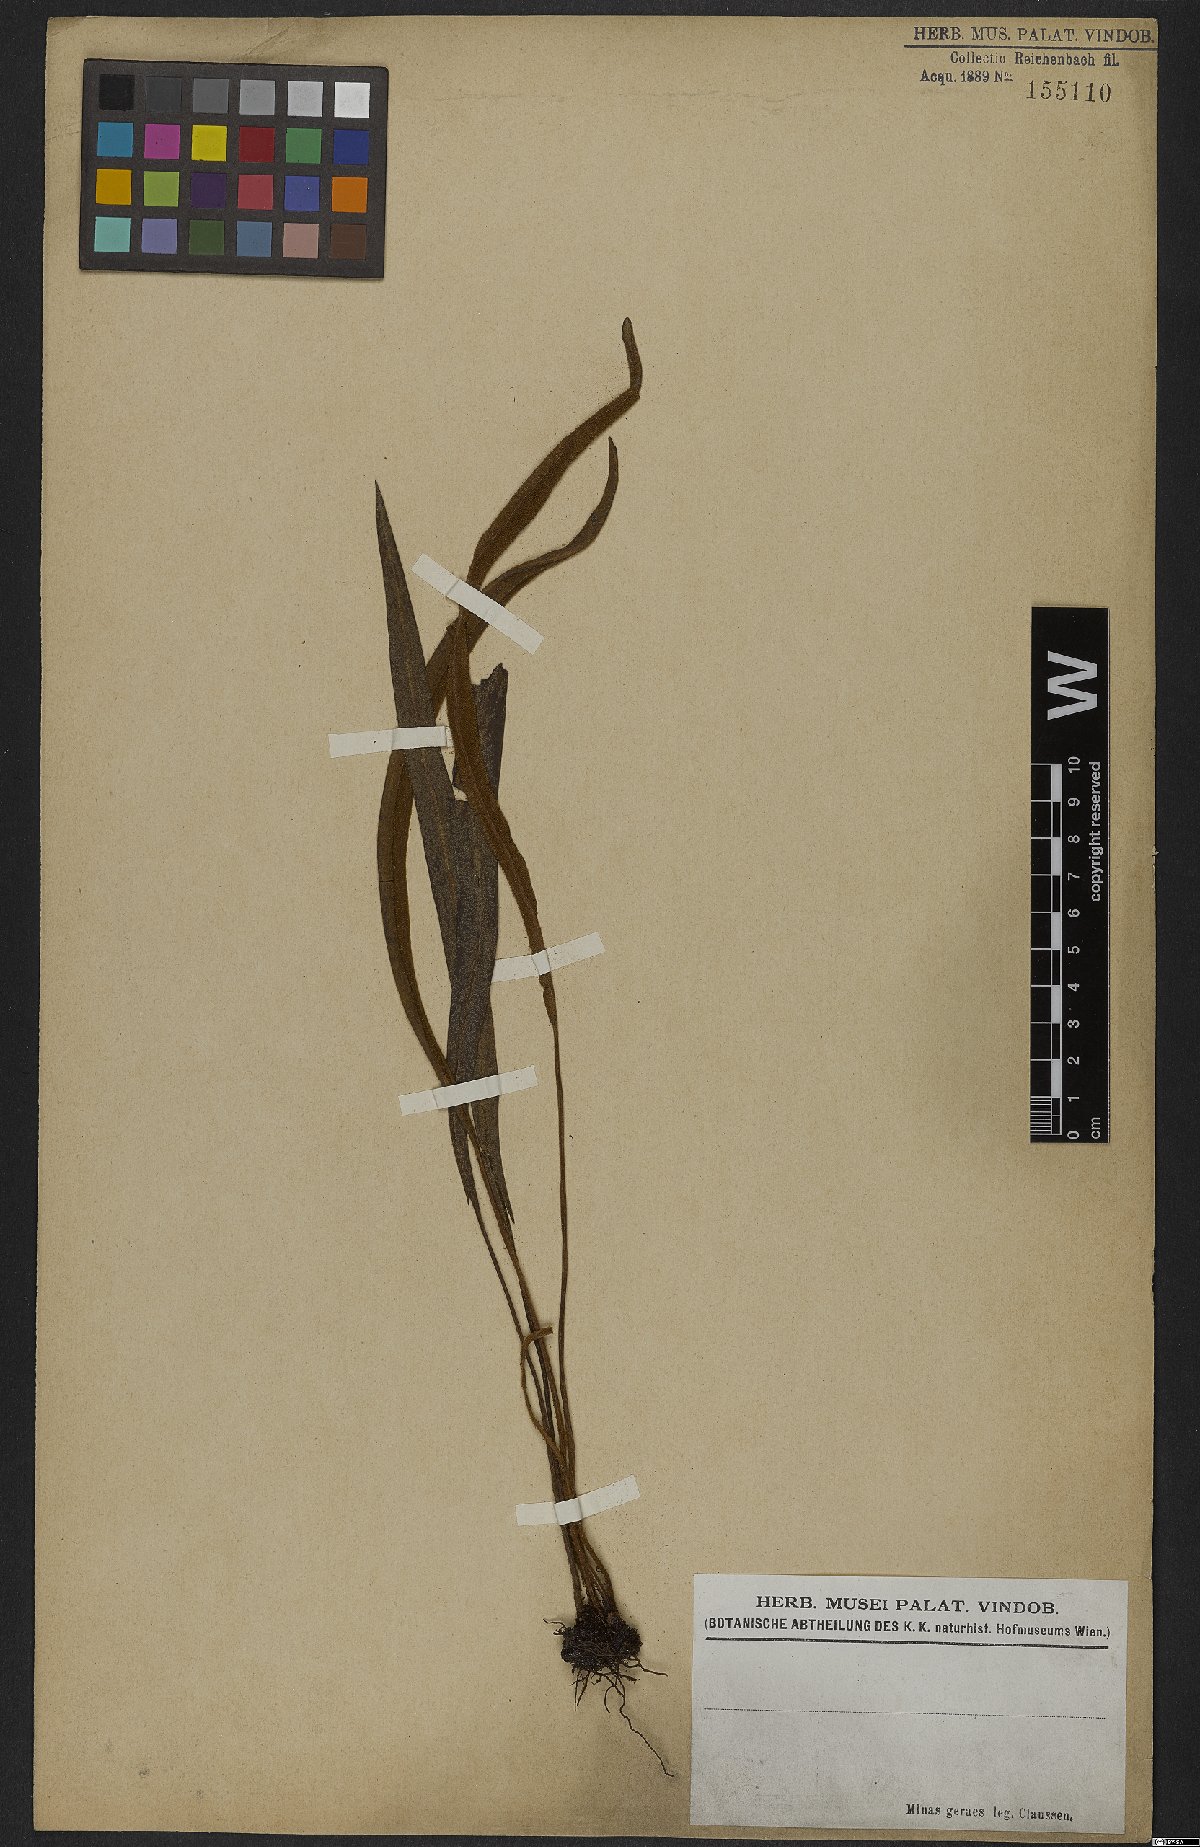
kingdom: Plantae
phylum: Tracheophyta
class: Polypodiopsida
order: Polypodiales
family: Dryopteridaceae
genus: Elaphoglossum
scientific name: Elaphoglossum
